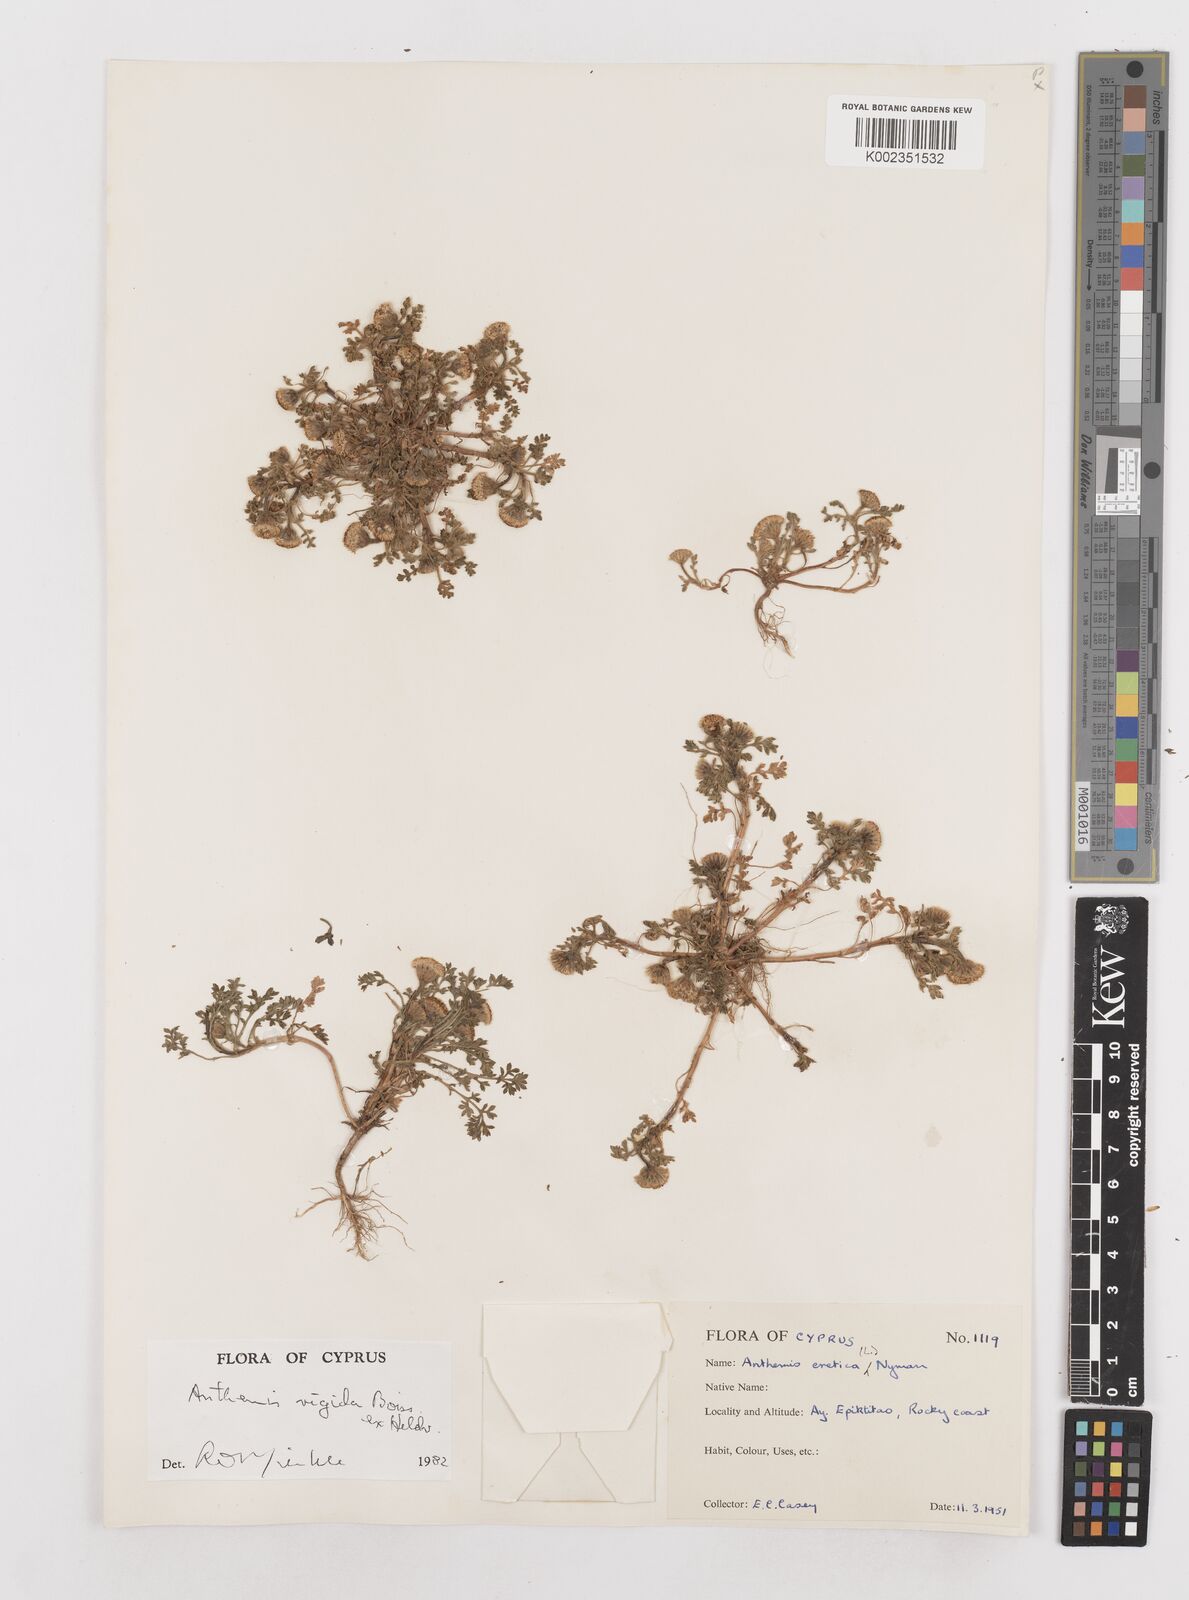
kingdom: Plantae
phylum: Tracheophyta
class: Magnoliopsida
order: Asterales
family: Asteraceae
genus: Anthemis
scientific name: Anthemis rigida
